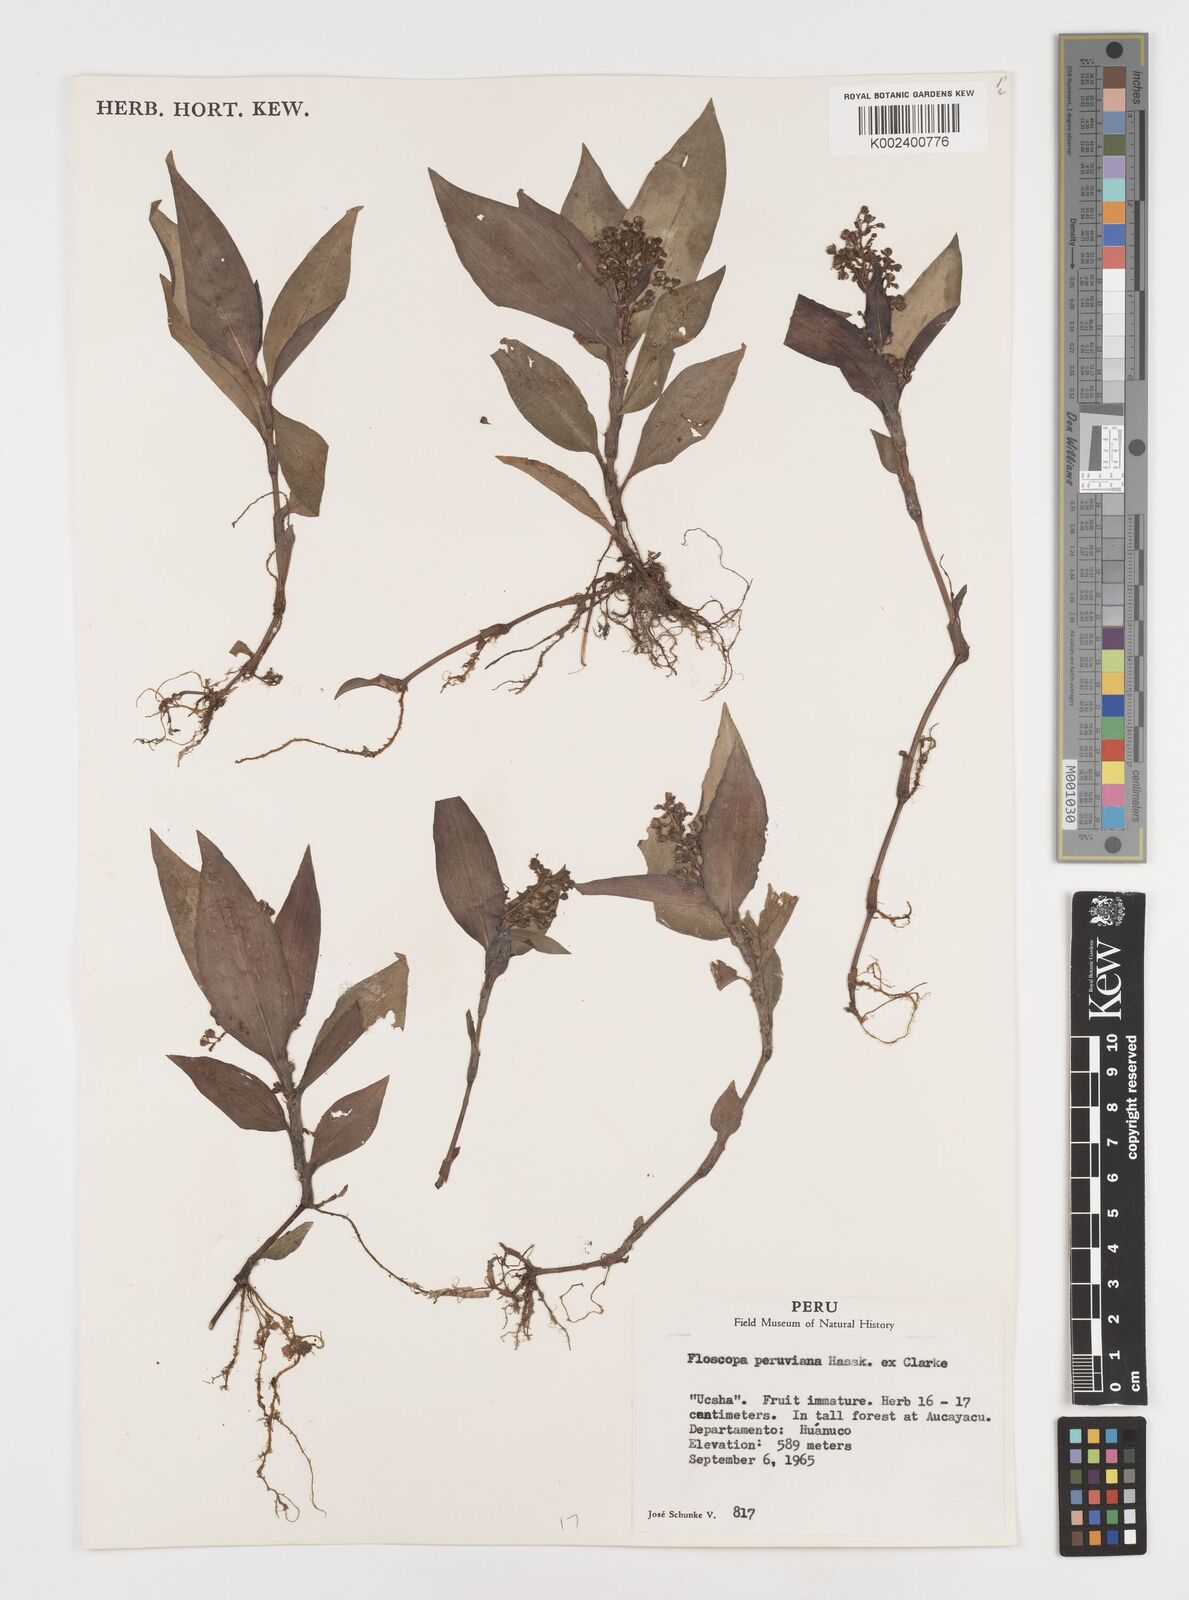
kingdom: Plantae
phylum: Tracheophyta
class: Liliopsida
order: Commelinales
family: Commelinaceae
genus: Floscopa
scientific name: Floscopa peruviana
